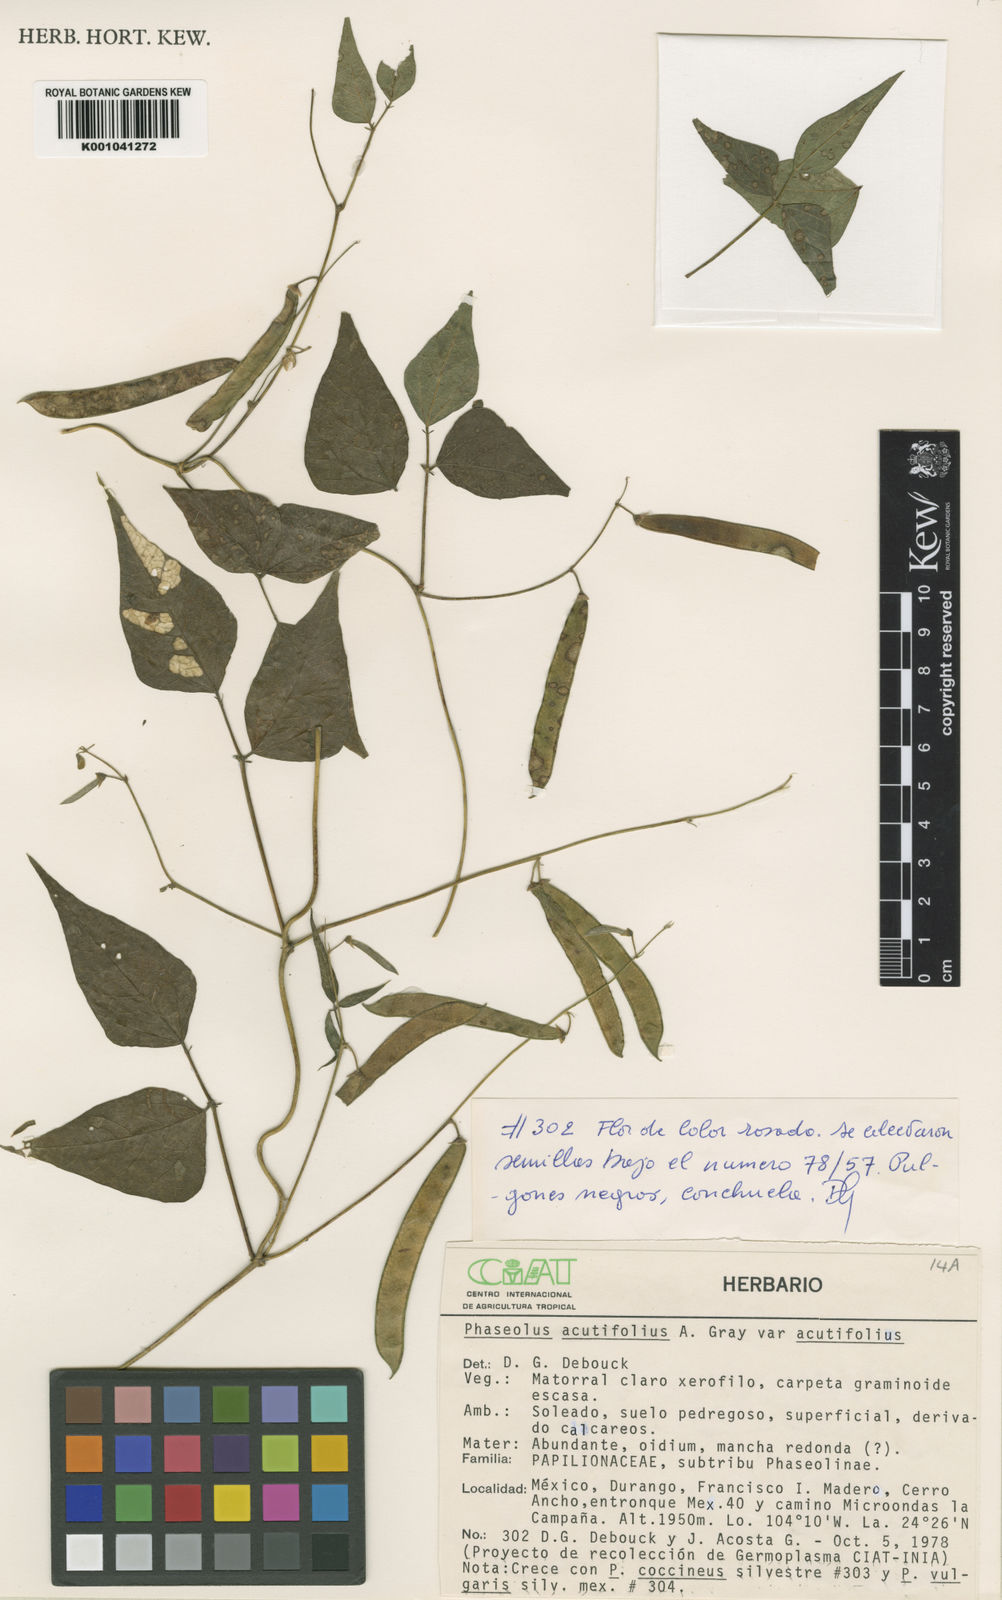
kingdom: Plantae
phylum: Tracheophyta
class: Magnoliopsida
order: Fabales
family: Fabaceae
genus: Phaseolus
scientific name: Phaseolus acutifolius
